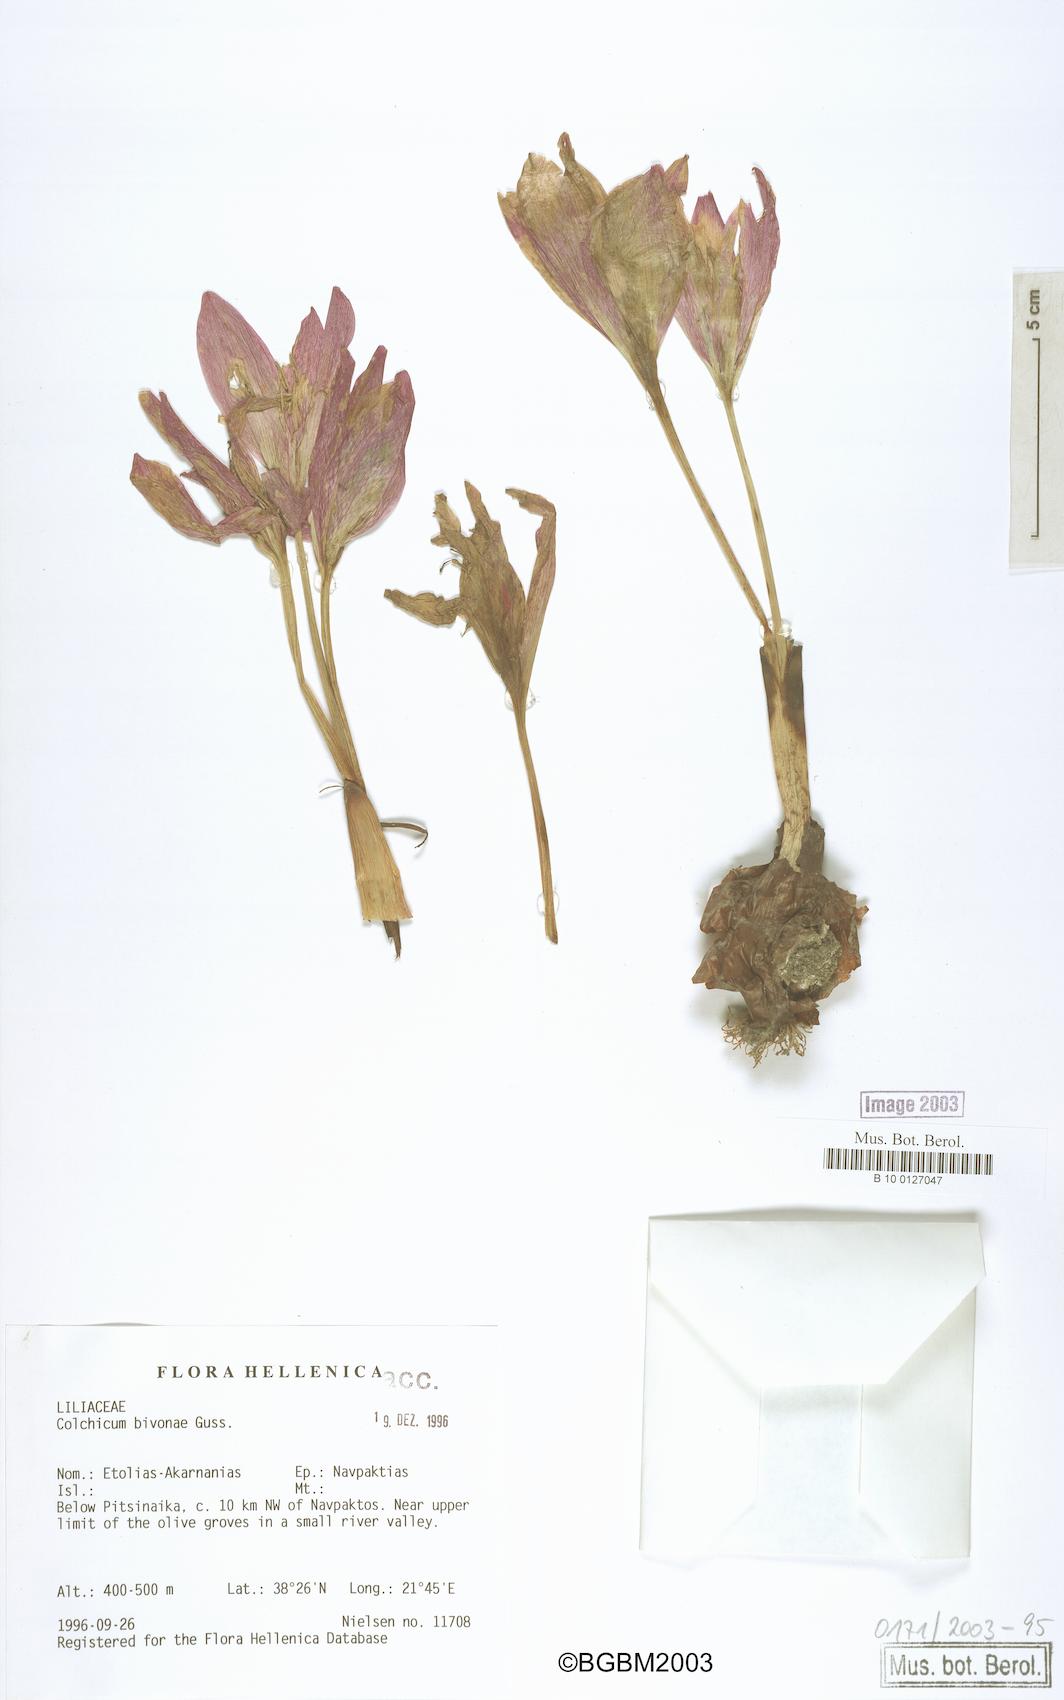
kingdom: Plantae
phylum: Tracheophyta
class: Liliopsida
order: Liliales
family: Colchicaceae
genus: Colchicum
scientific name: Colchicum bivonae
